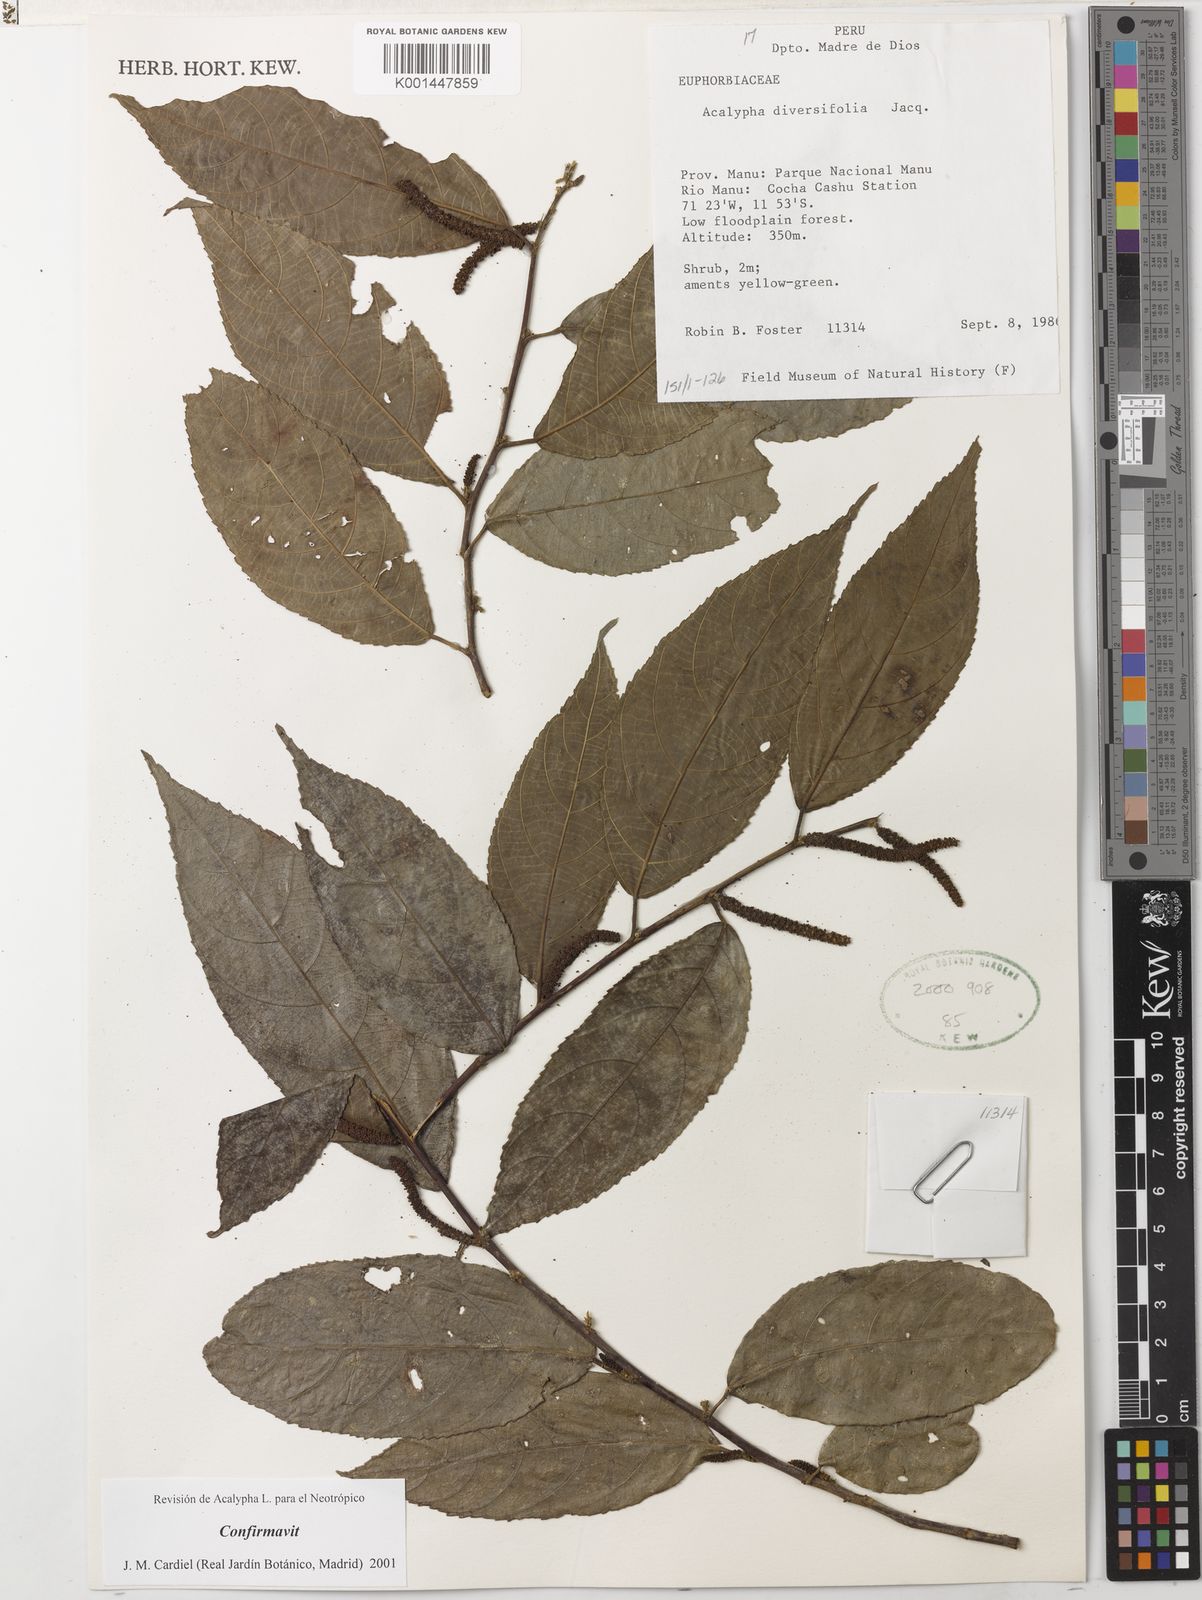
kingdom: Plantae
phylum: Tracheophyta
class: Magnoliopsida
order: Malpighiales
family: Euphorbiaceae
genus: Acalypha
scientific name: Acalypha diversifolia
